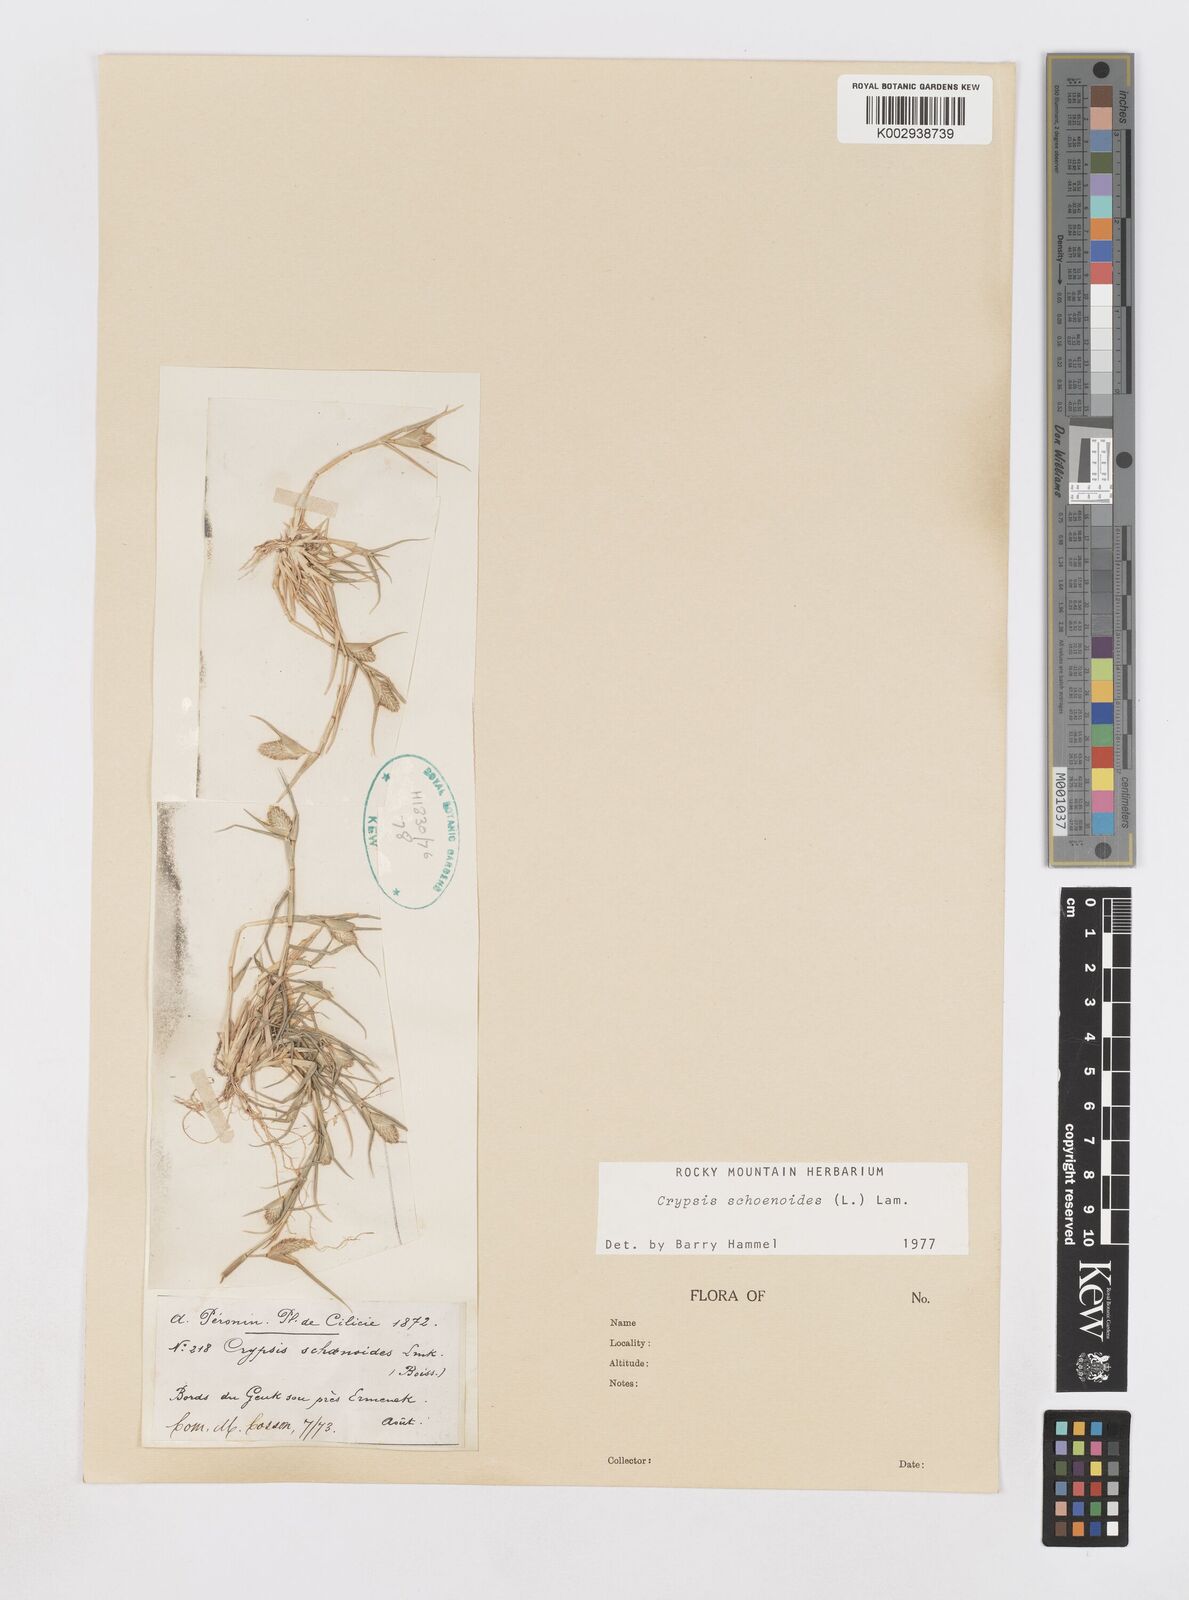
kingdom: Plantae
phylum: Tracheophyta
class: Liliopsida
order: Poales
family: Poaceae
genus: Sporobolus
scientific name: Sporobolus schoenoides
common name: Rush-like timothy
